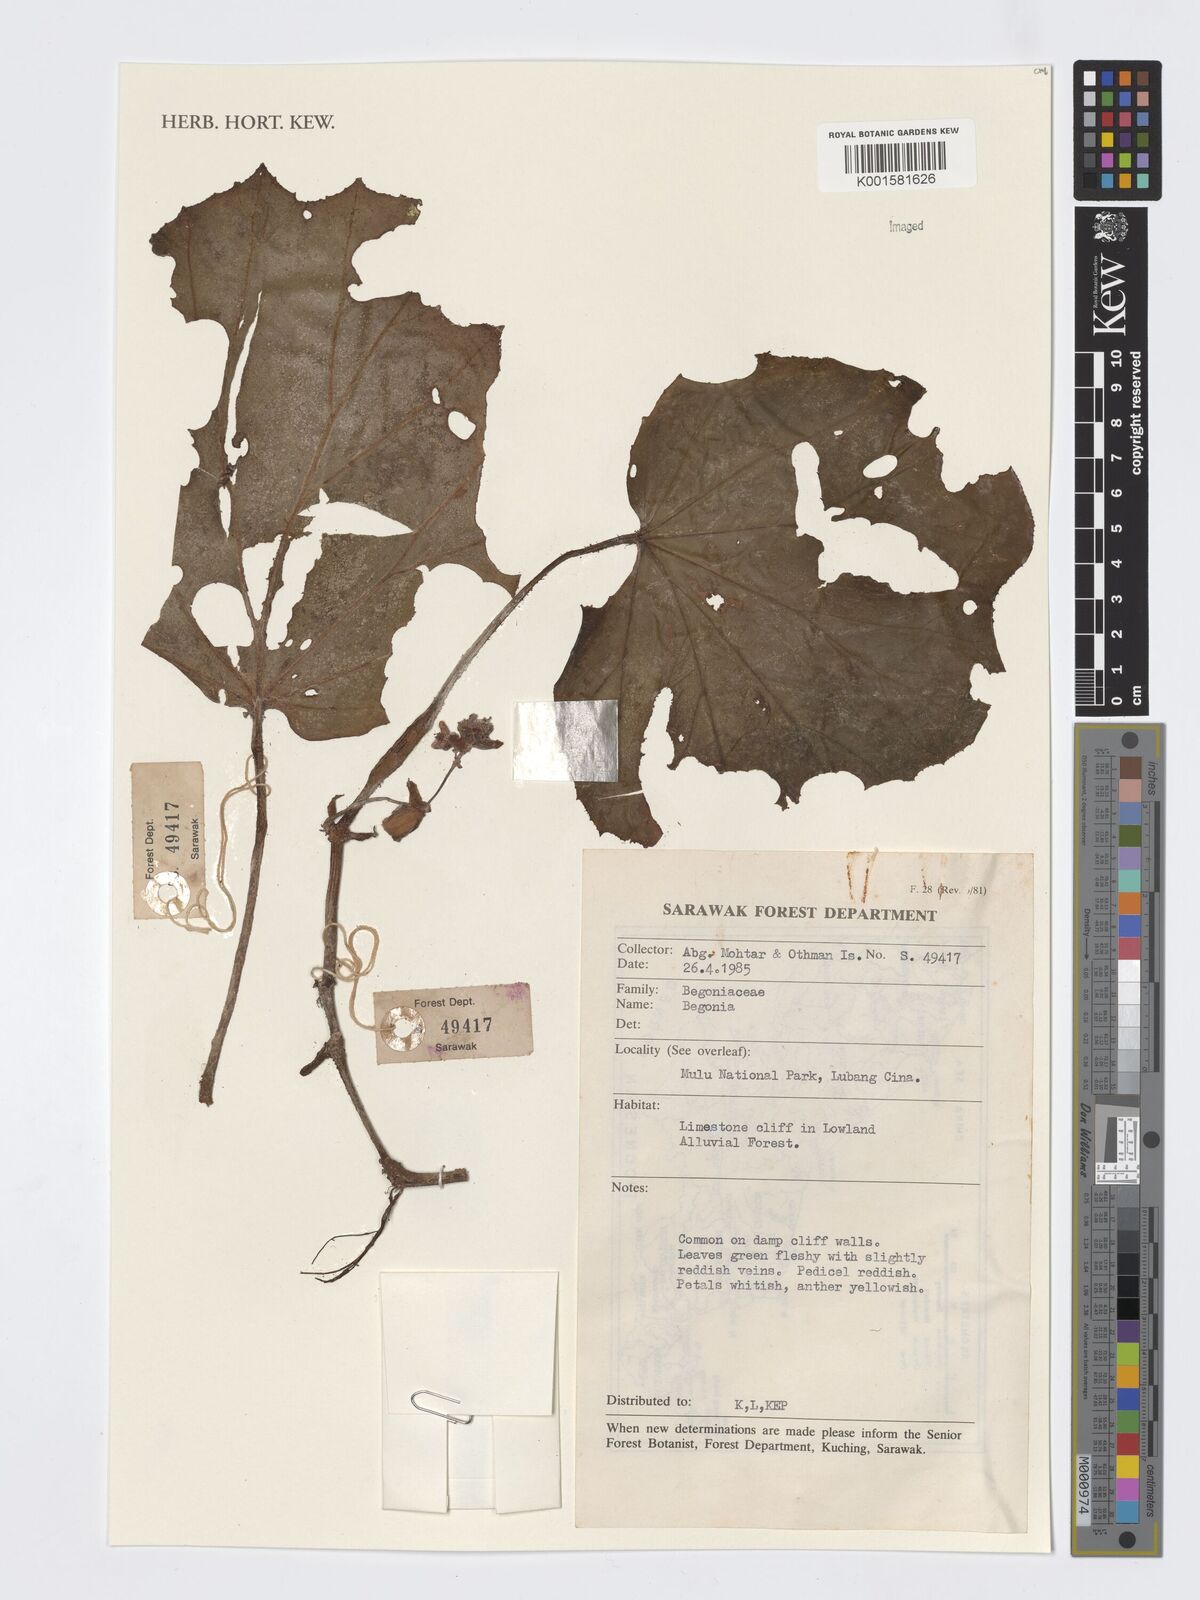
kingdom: Plantae
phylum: Tracheophyta
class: Magnoliopsida
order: Cucurbitales
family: Begoniaceae
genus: Begonia
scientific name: Begonia
